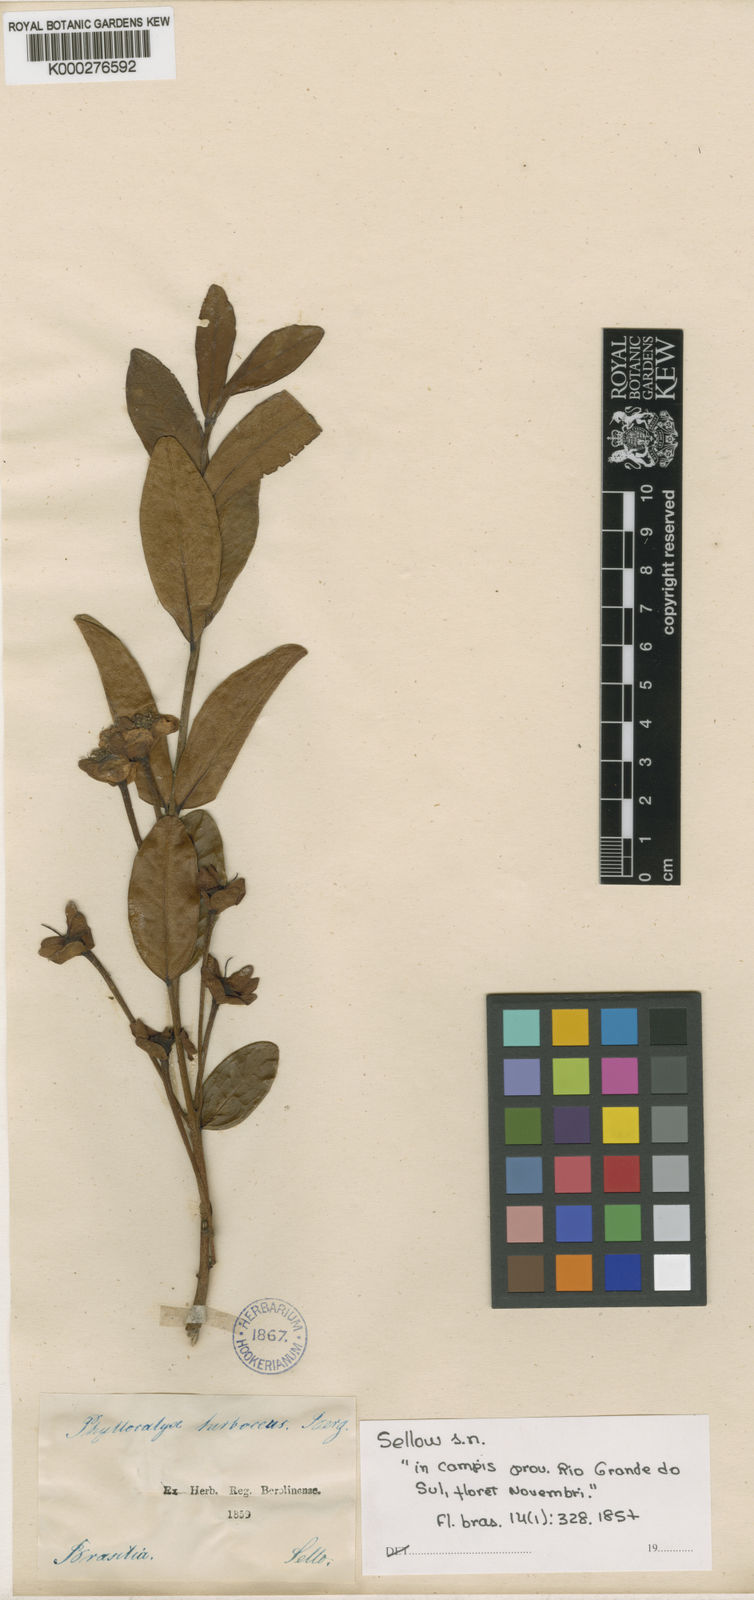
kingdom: Plantae
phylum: Tracheophyta
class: Magnoliopsida
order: Myrtales
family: Myrtaceae
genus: Eugenia
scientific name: Eugenia calycina
